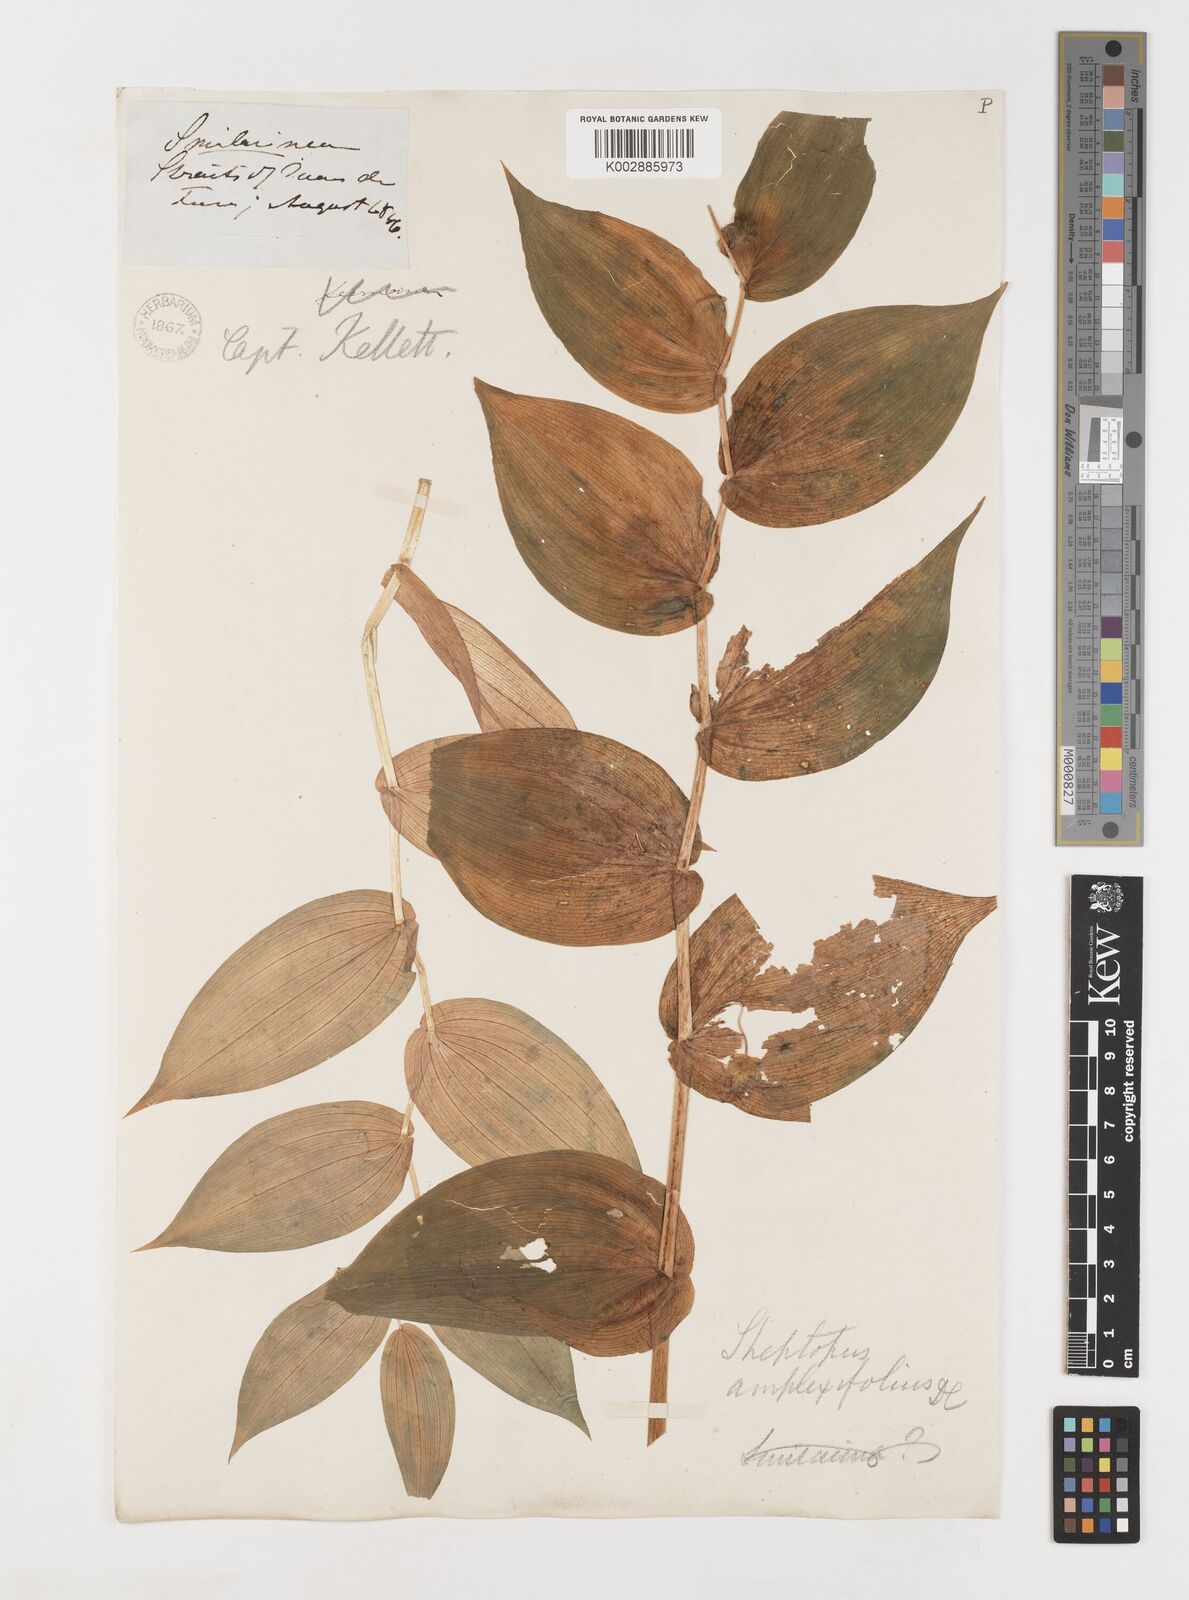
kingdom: Plantae
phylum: Tracheophyta
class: Liliopsida
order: Liliales
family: Liliaceae
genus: Streptopus
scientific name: Streptopus amplexifolius
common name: Clasp twisted stalk
